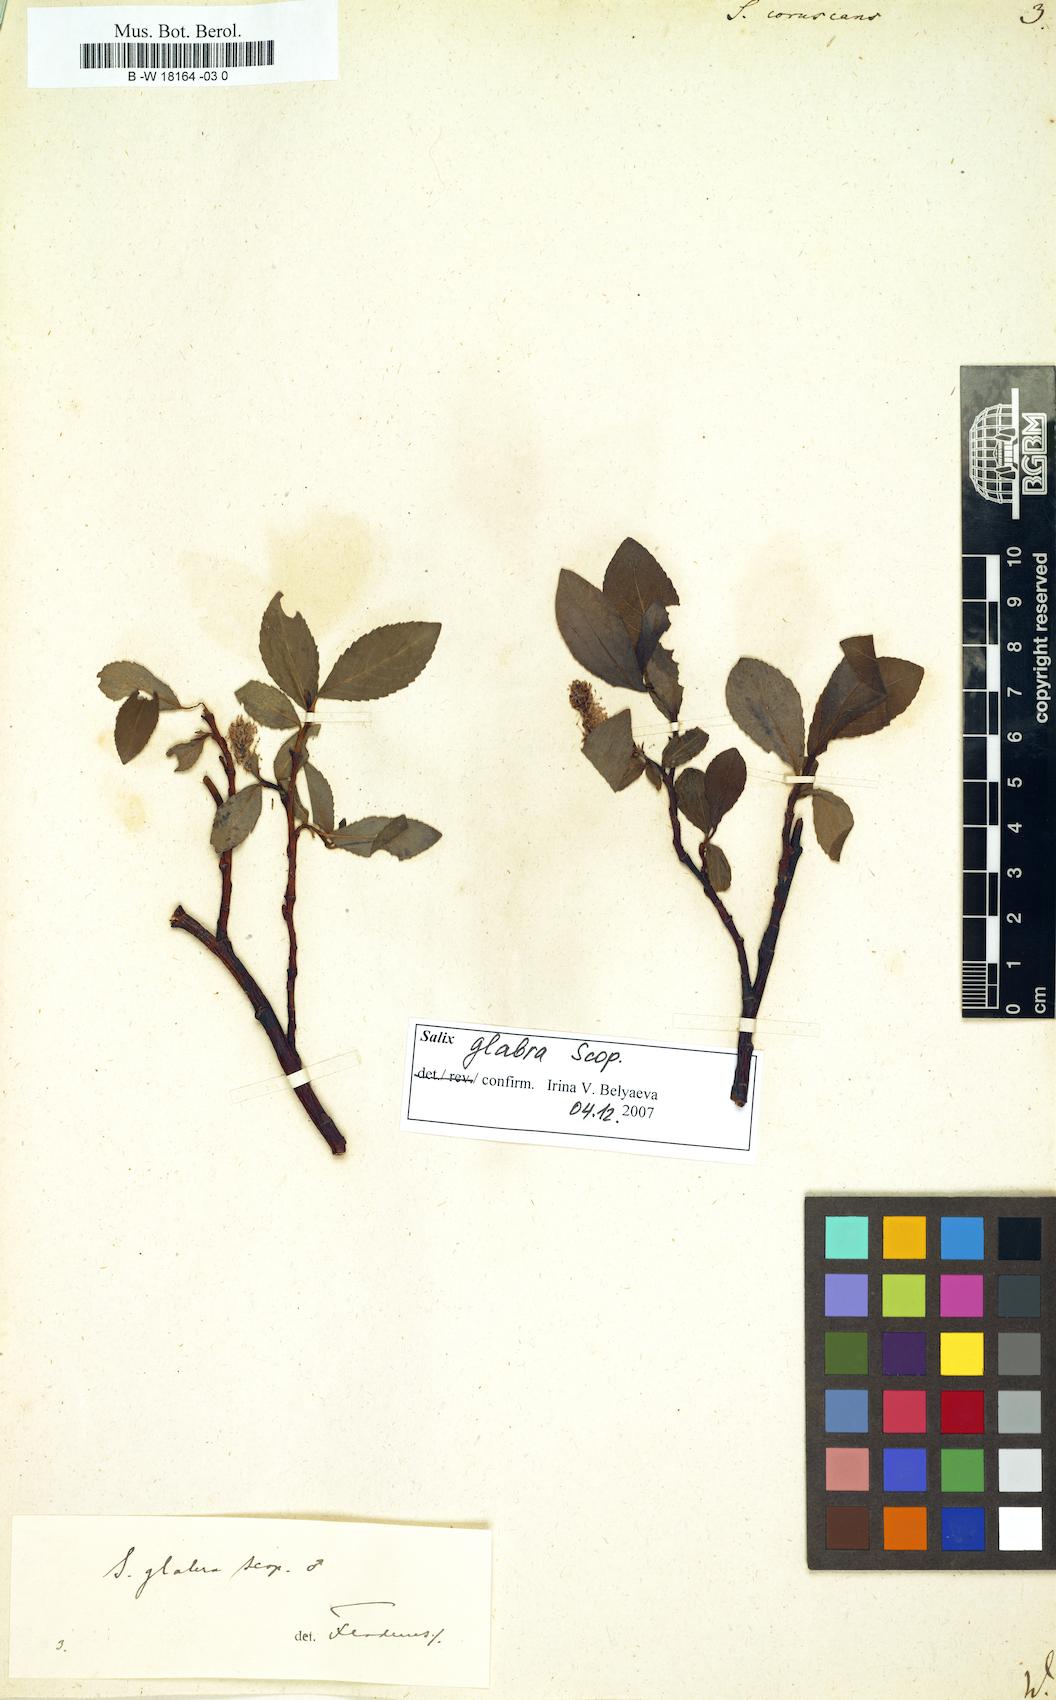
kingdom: Plantae
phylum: Tracheophyta
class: Magnoliopsida
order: Malpighiales
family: Salicaceae
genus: Salix
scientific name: Salix
